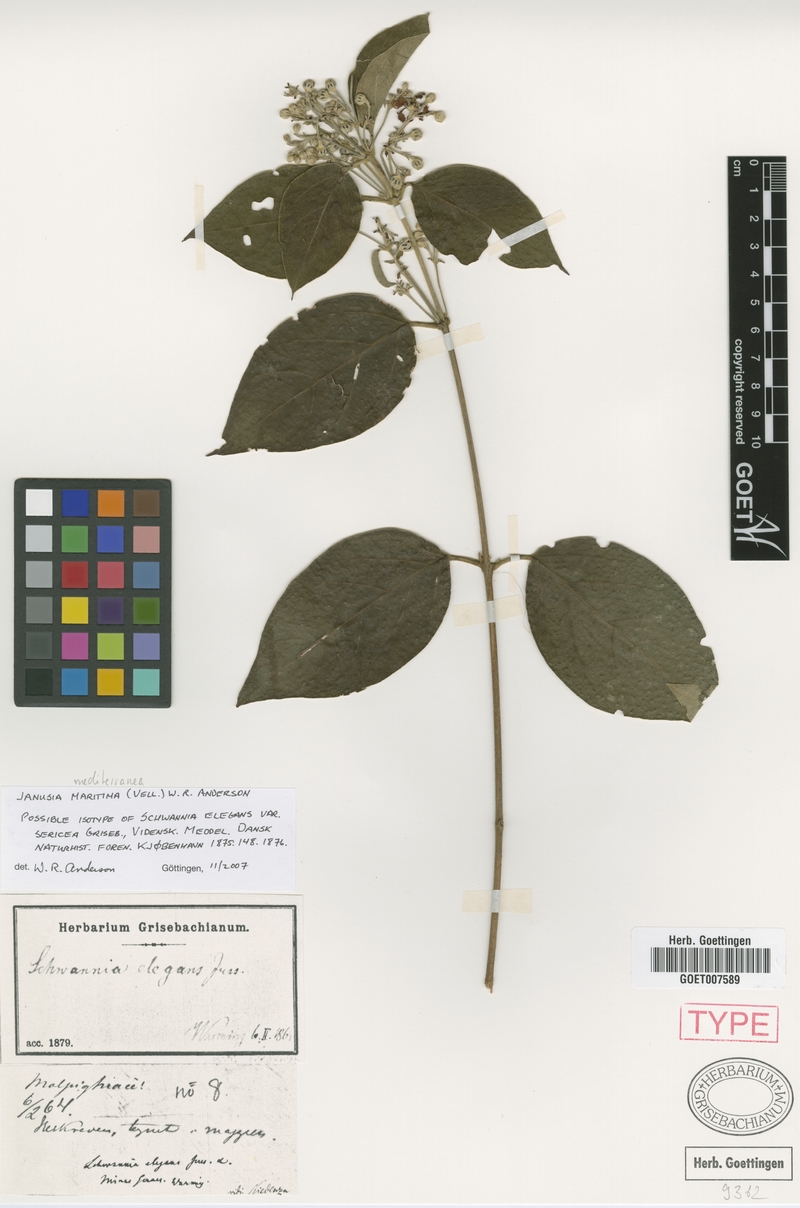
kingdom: Plantae
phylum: Tracheophyta
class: Magnoliopsida
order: Malpighiales
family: Malpighiaceae
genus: Janusia
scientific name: Janusia mediterranea
